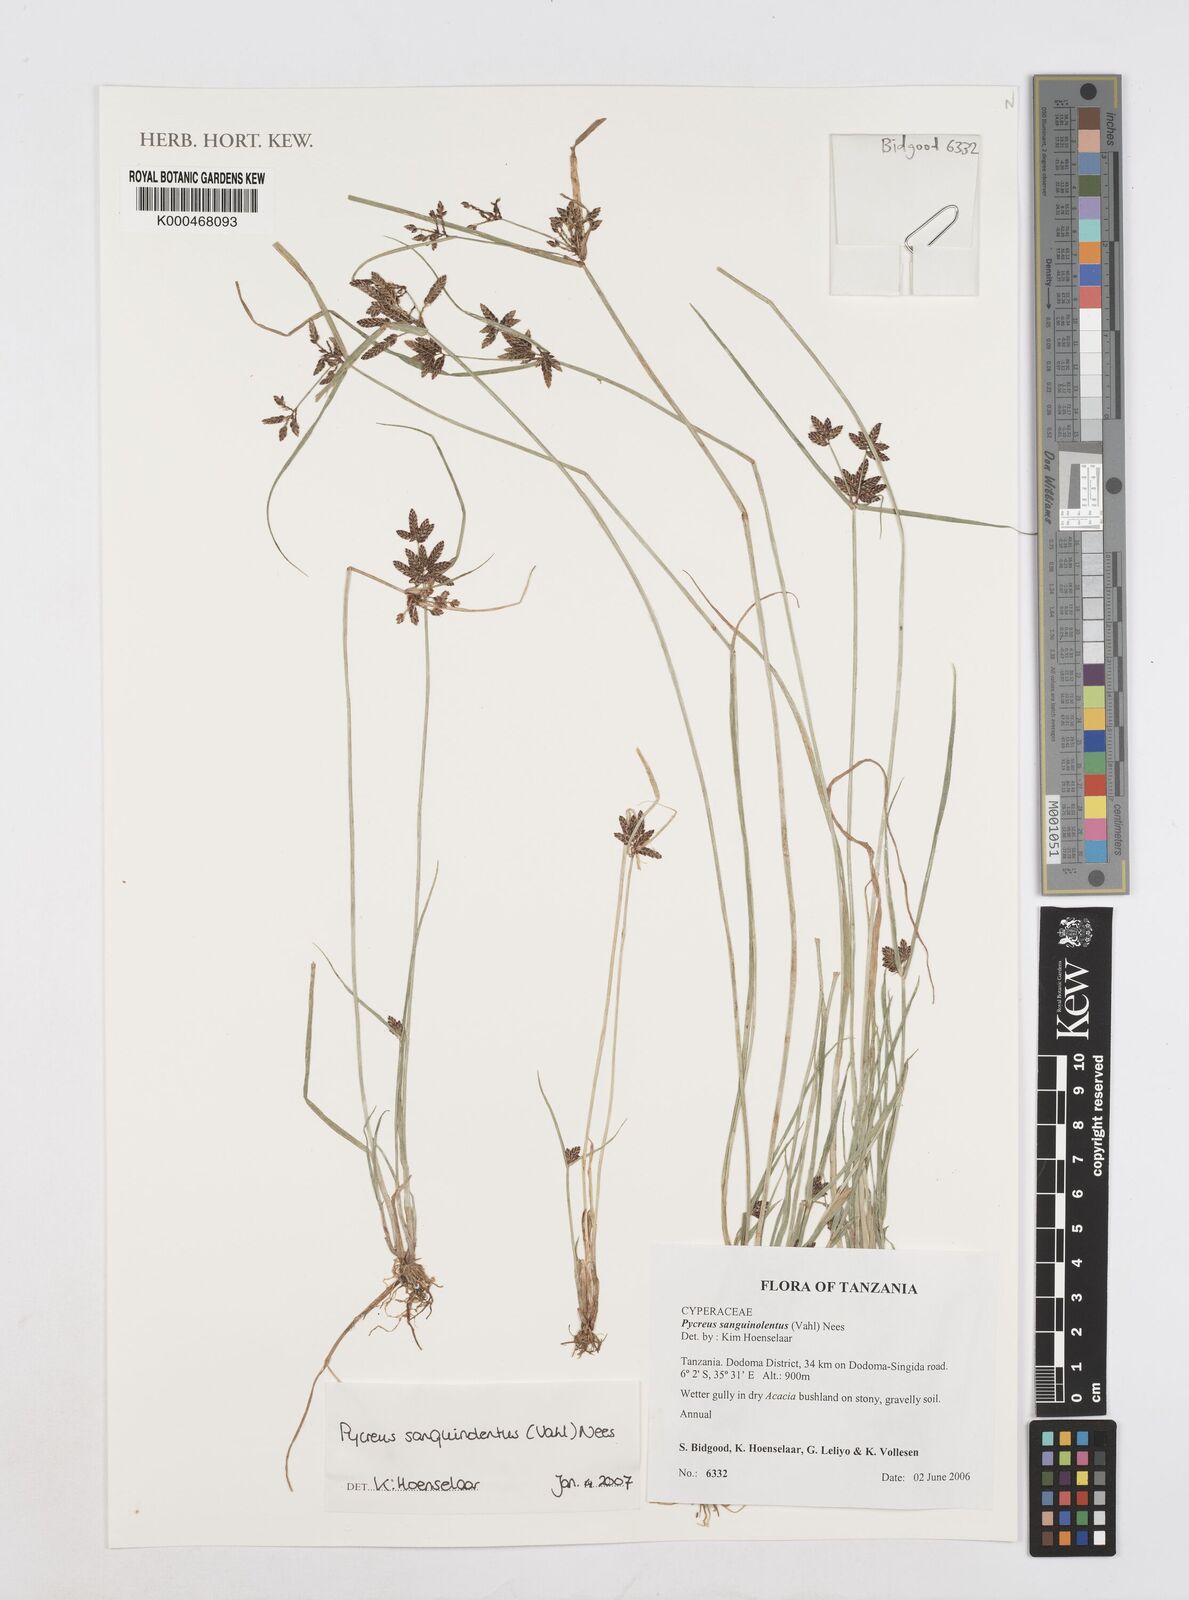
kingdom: Plantae
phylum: Tracheophyta
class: Liliopsida
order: Poales
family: Cyperaceae
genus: Cyperus
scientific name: Cyperus sanguinolentus
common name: Purpleglume flatsedge
